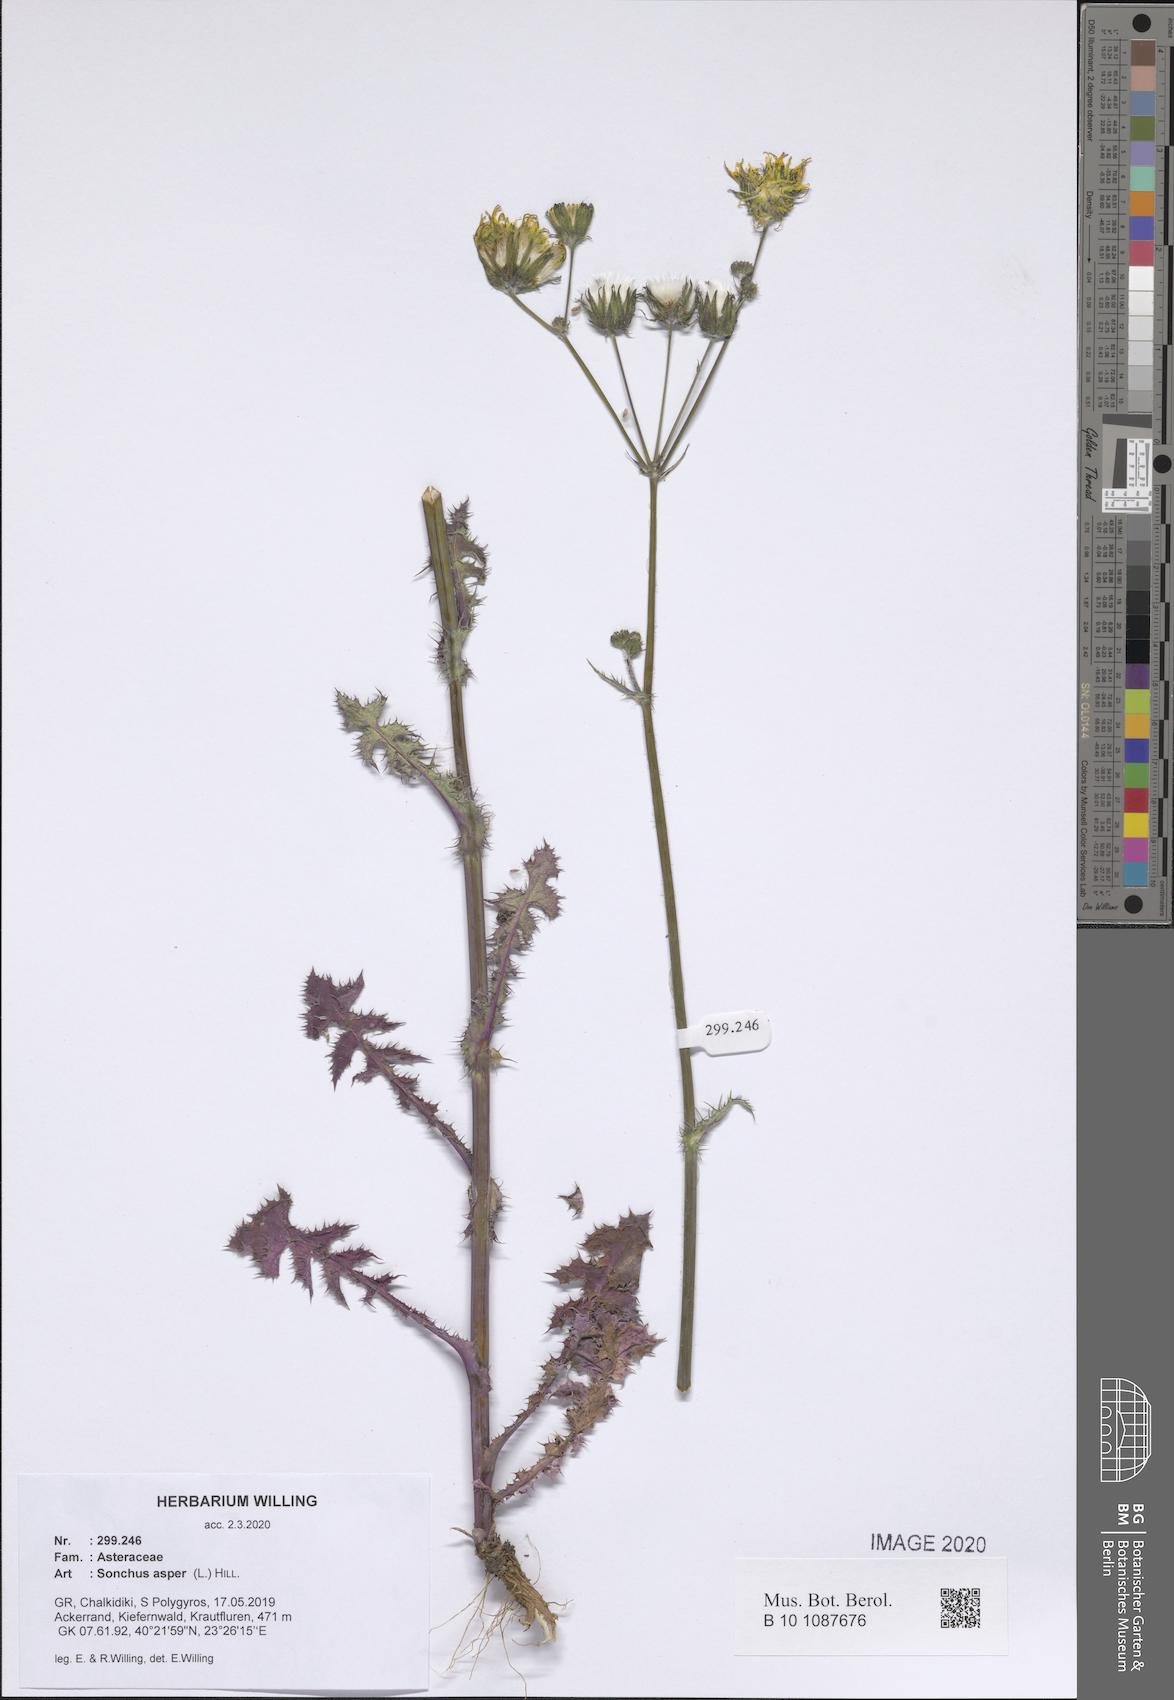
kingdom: Plantae
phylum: Tracheophyta
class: Magnoliopsida
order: Asterales
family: Asteraceae
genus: Sonchus
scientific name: Sonchus asper
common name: Prickly sow-thistle
